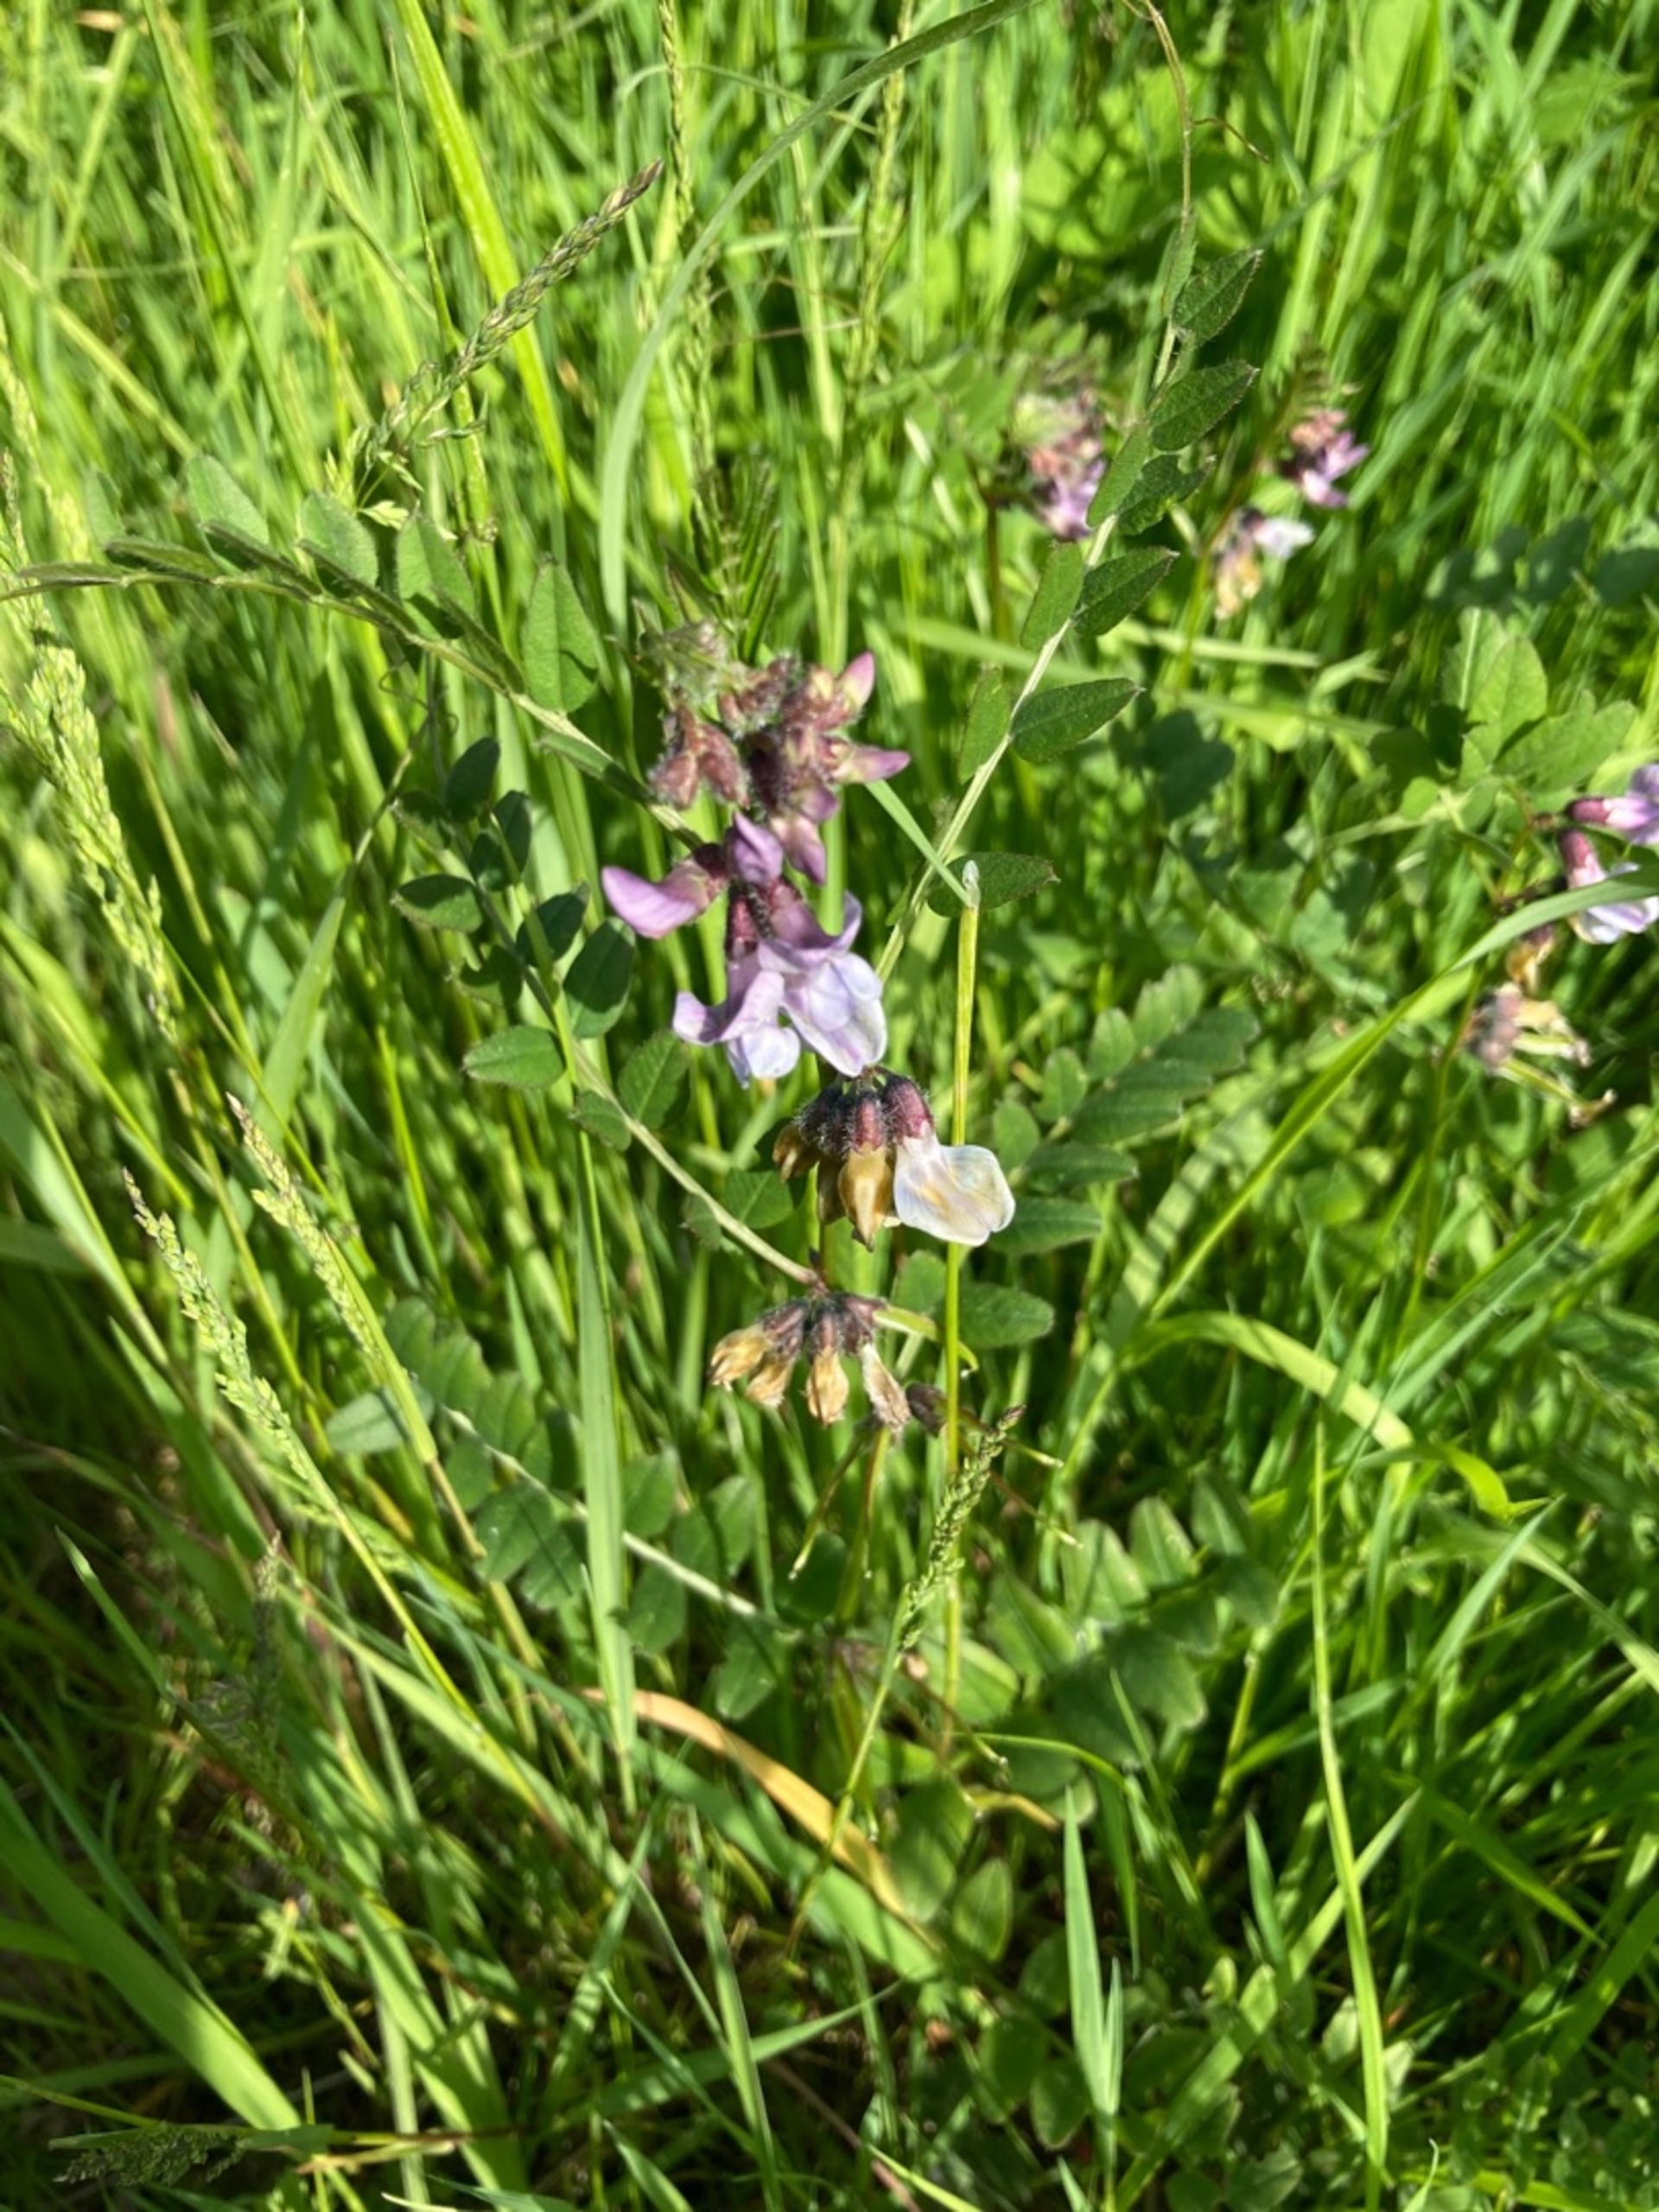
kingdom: Plantae
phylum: Tracheophyta
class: Magnoliopsida
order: Fabales
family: Fabaceae
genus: Vicia
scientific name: Vicia sepium
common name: Gærde-vikke
